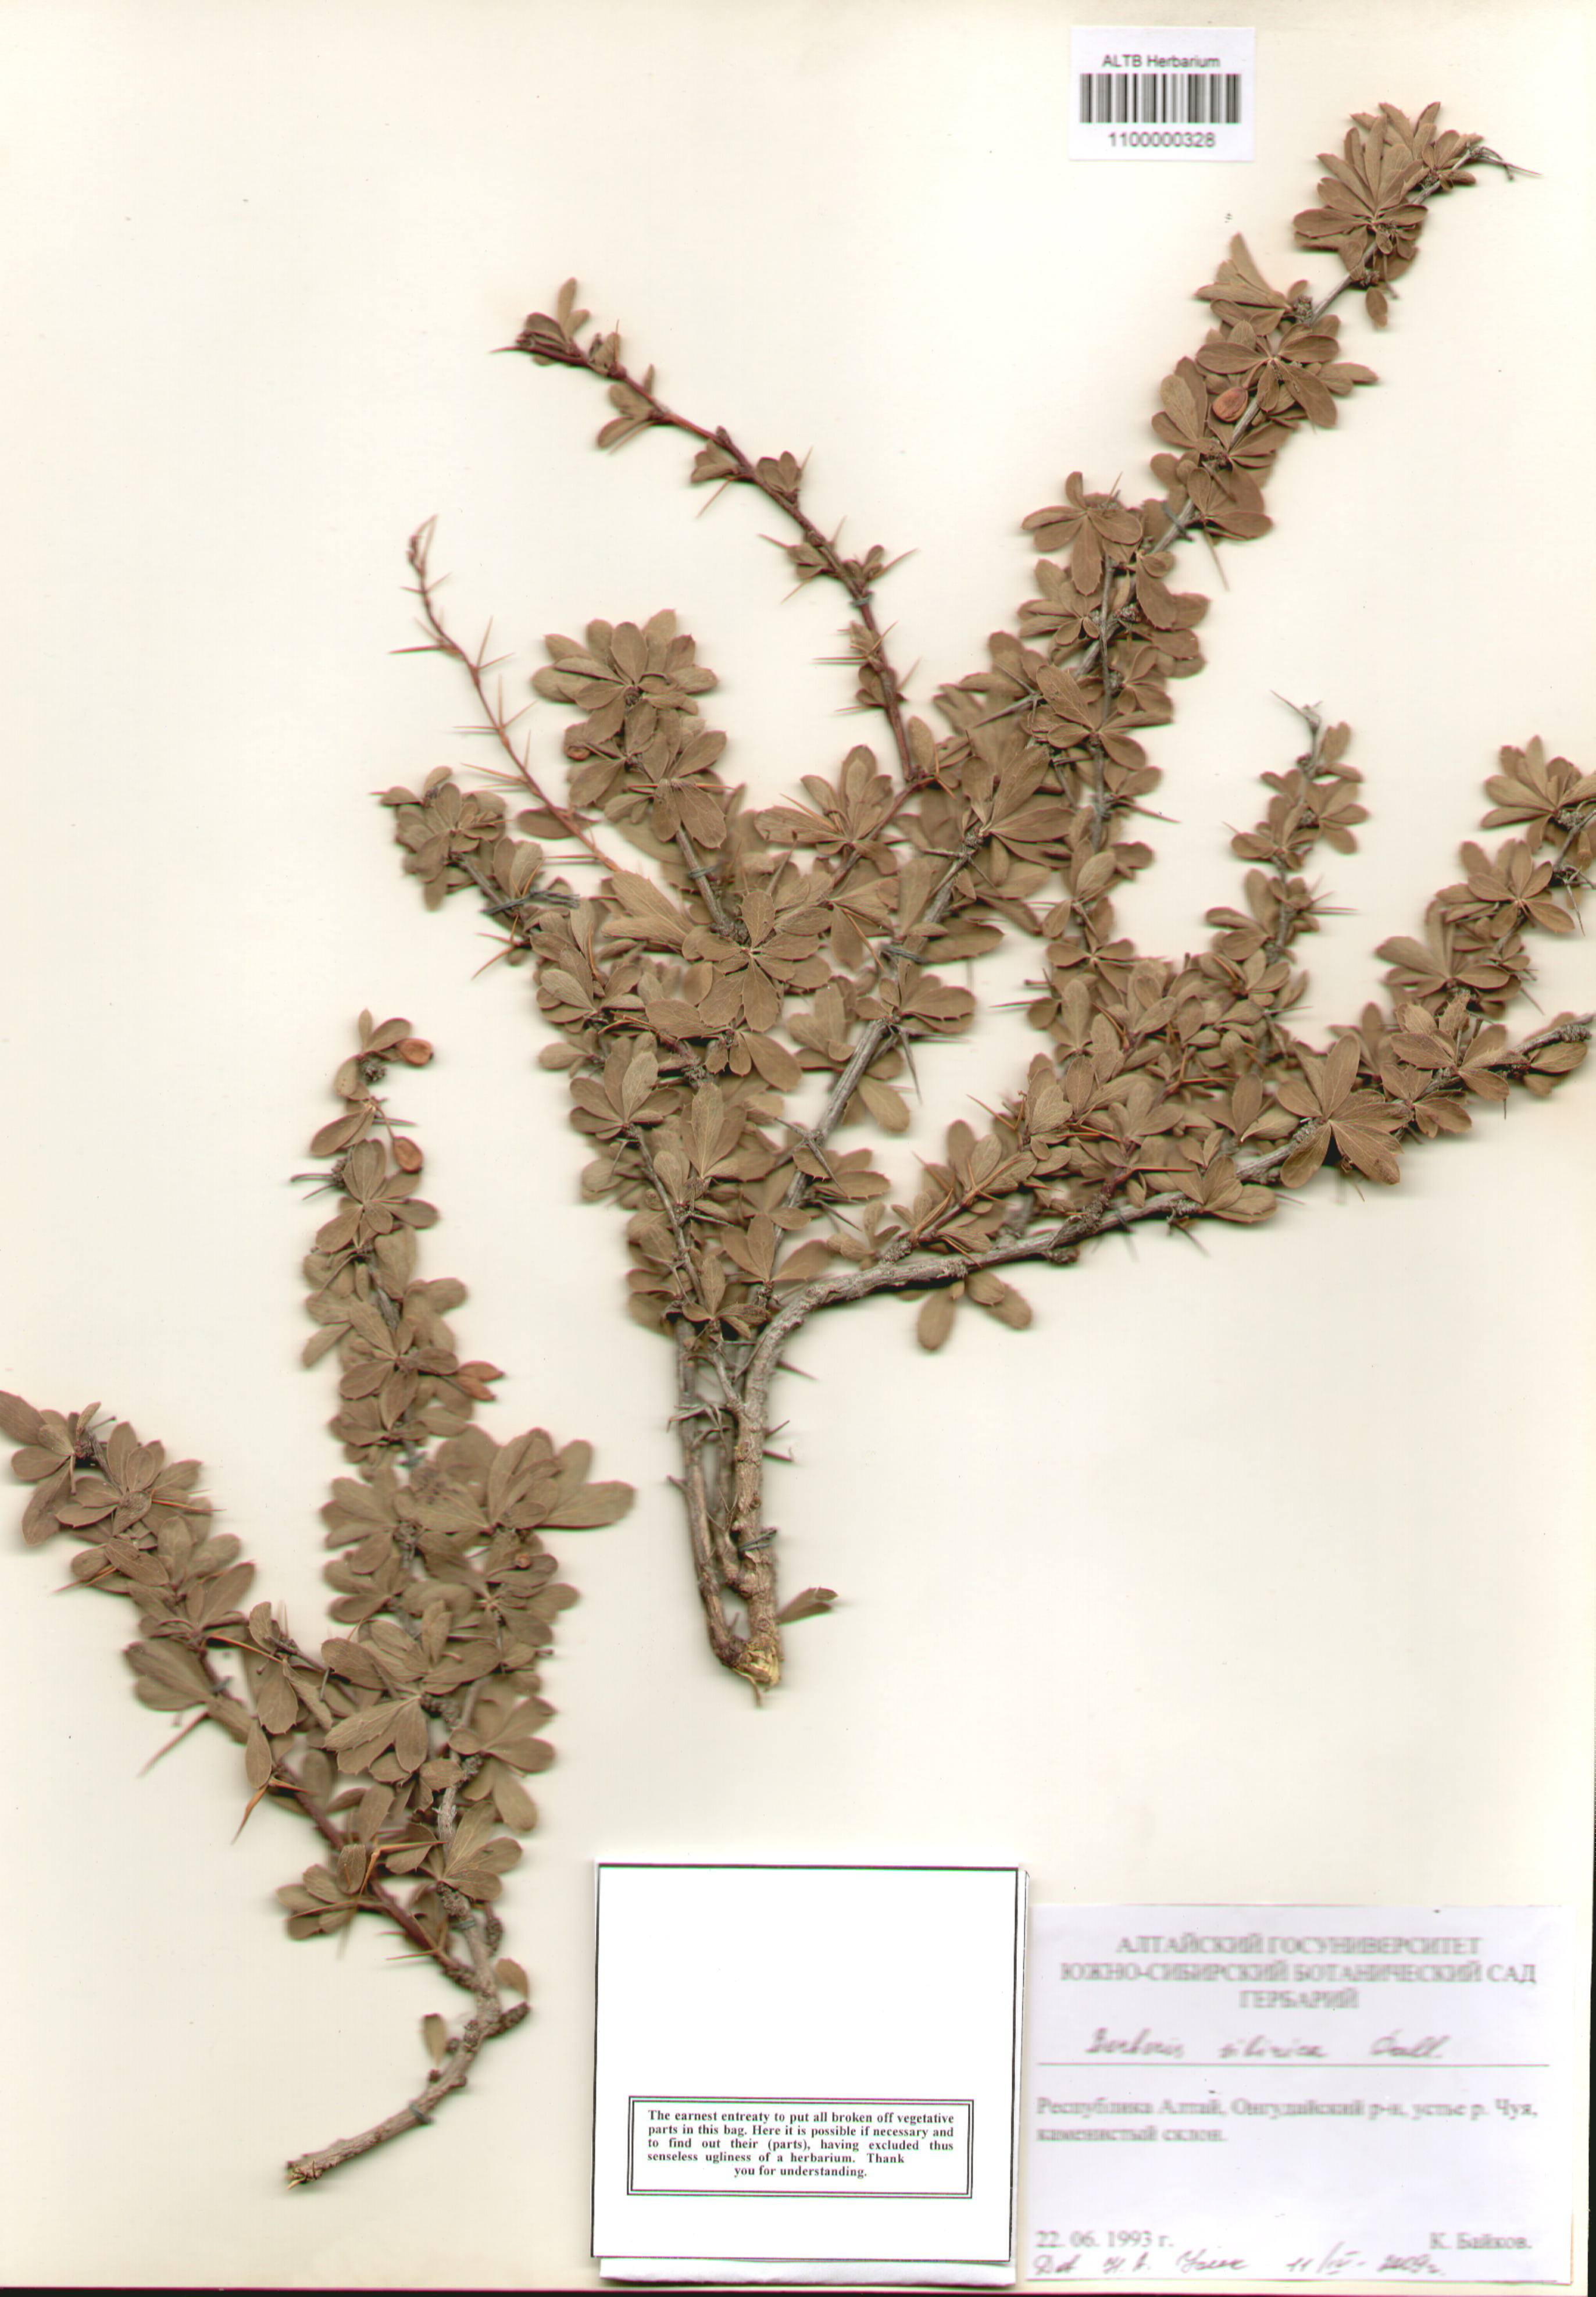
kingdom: Plantae
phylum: Tracheophyta
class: Magnoliopsida
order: Ranunculales
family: Berberidaceae
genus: Berberis
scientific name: Berberis sibirica
